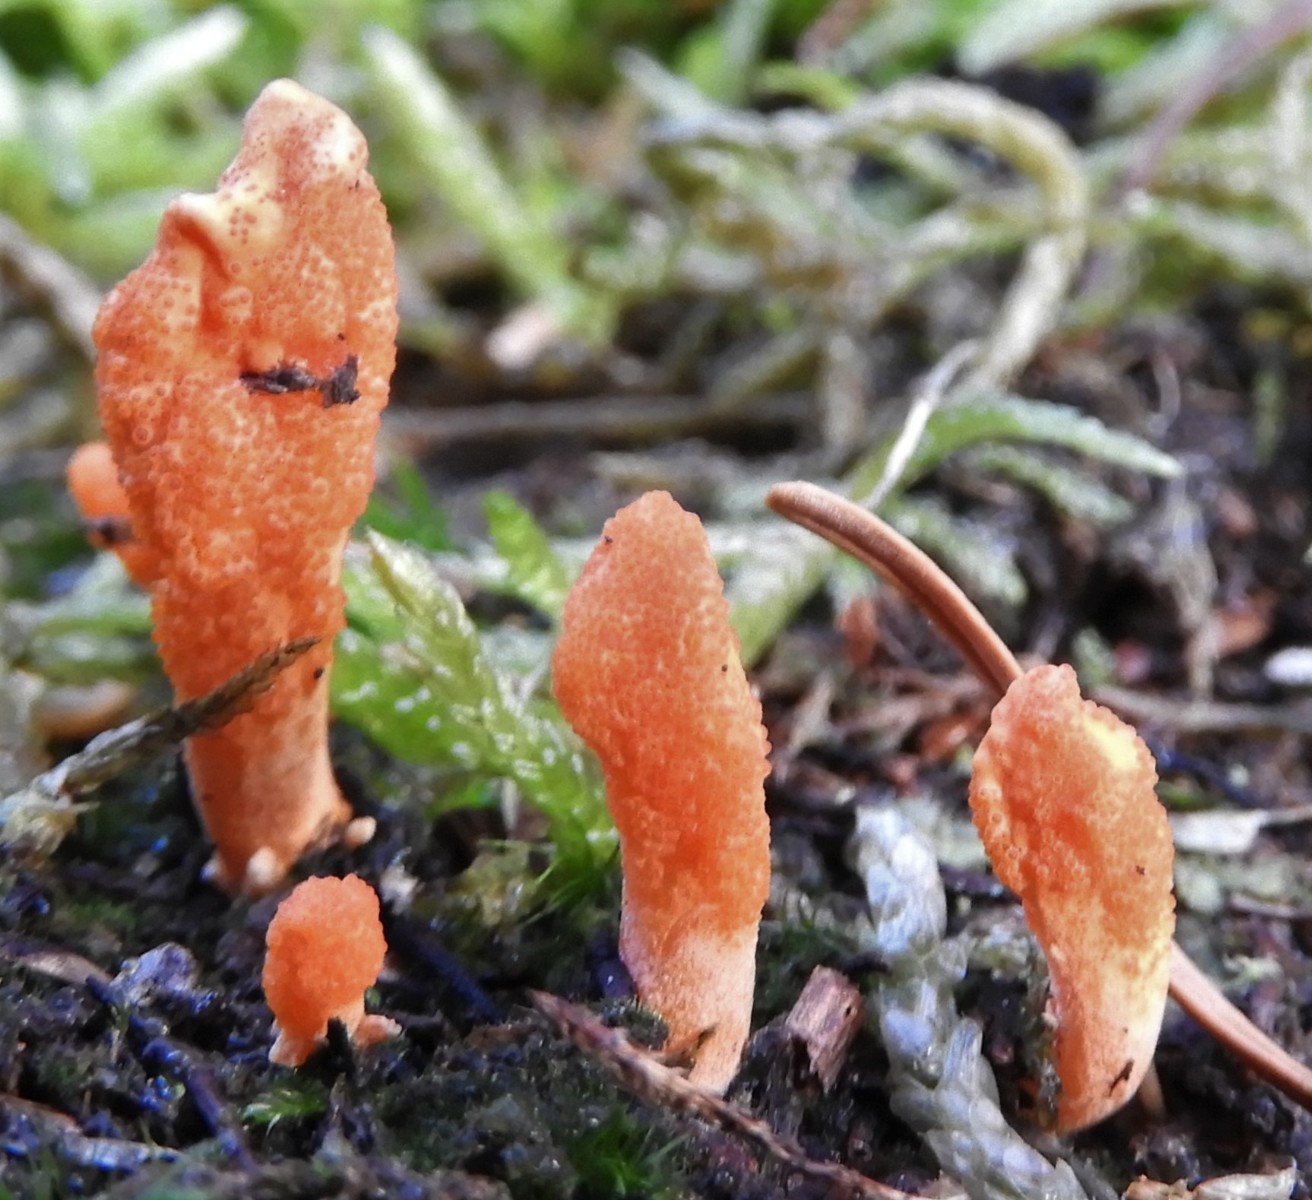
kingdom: Fungi
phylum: Ascomycota
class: Sordariomycetes
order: Hypocreales
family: Cordycipitaceae
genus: Cordyceps
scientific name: Cordyceps militaris
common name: puppe-snyltekølle
